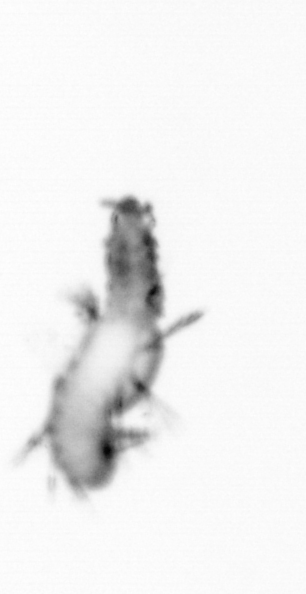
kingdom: Animalia
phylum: Annelida
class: Polychaeta
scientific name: Polychaeta
